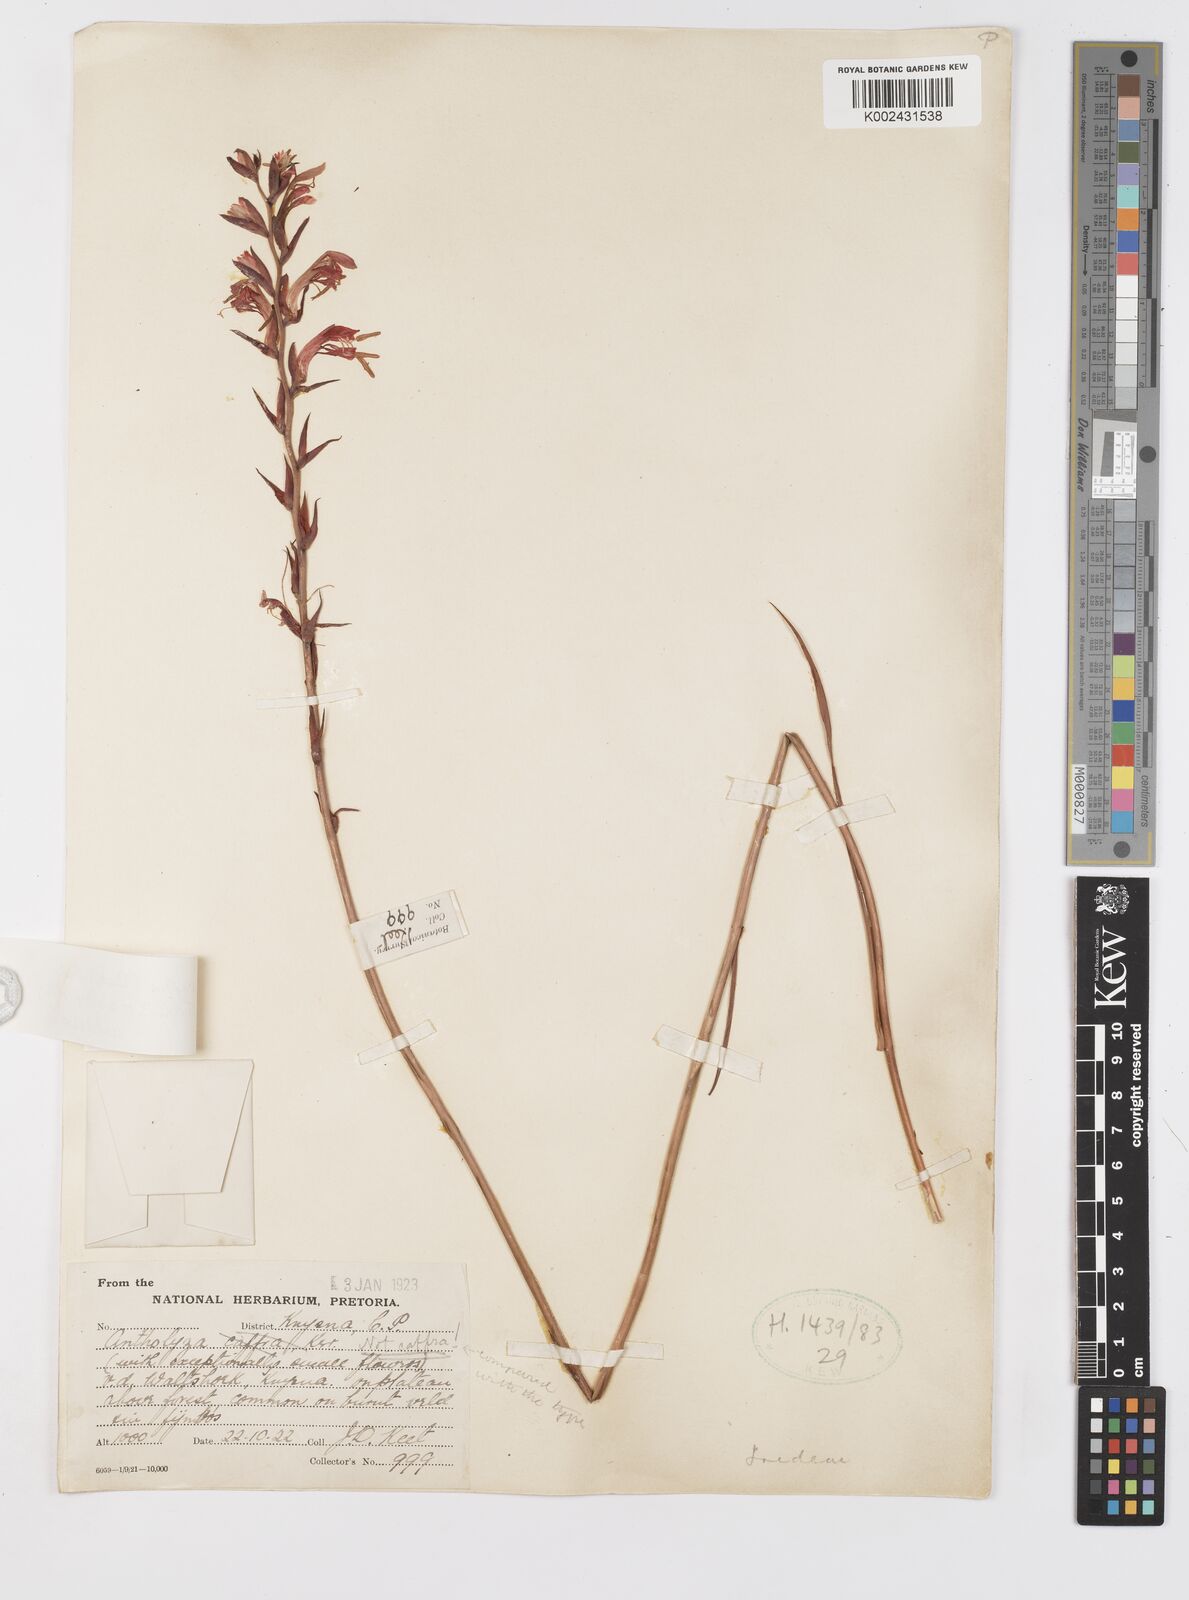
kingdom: Plantae
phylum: Tracheophyta
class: Liliopsida
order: Asparagales
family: Iridaceae
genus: Tritoniopsis
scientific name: Tritoniopsis caffra
